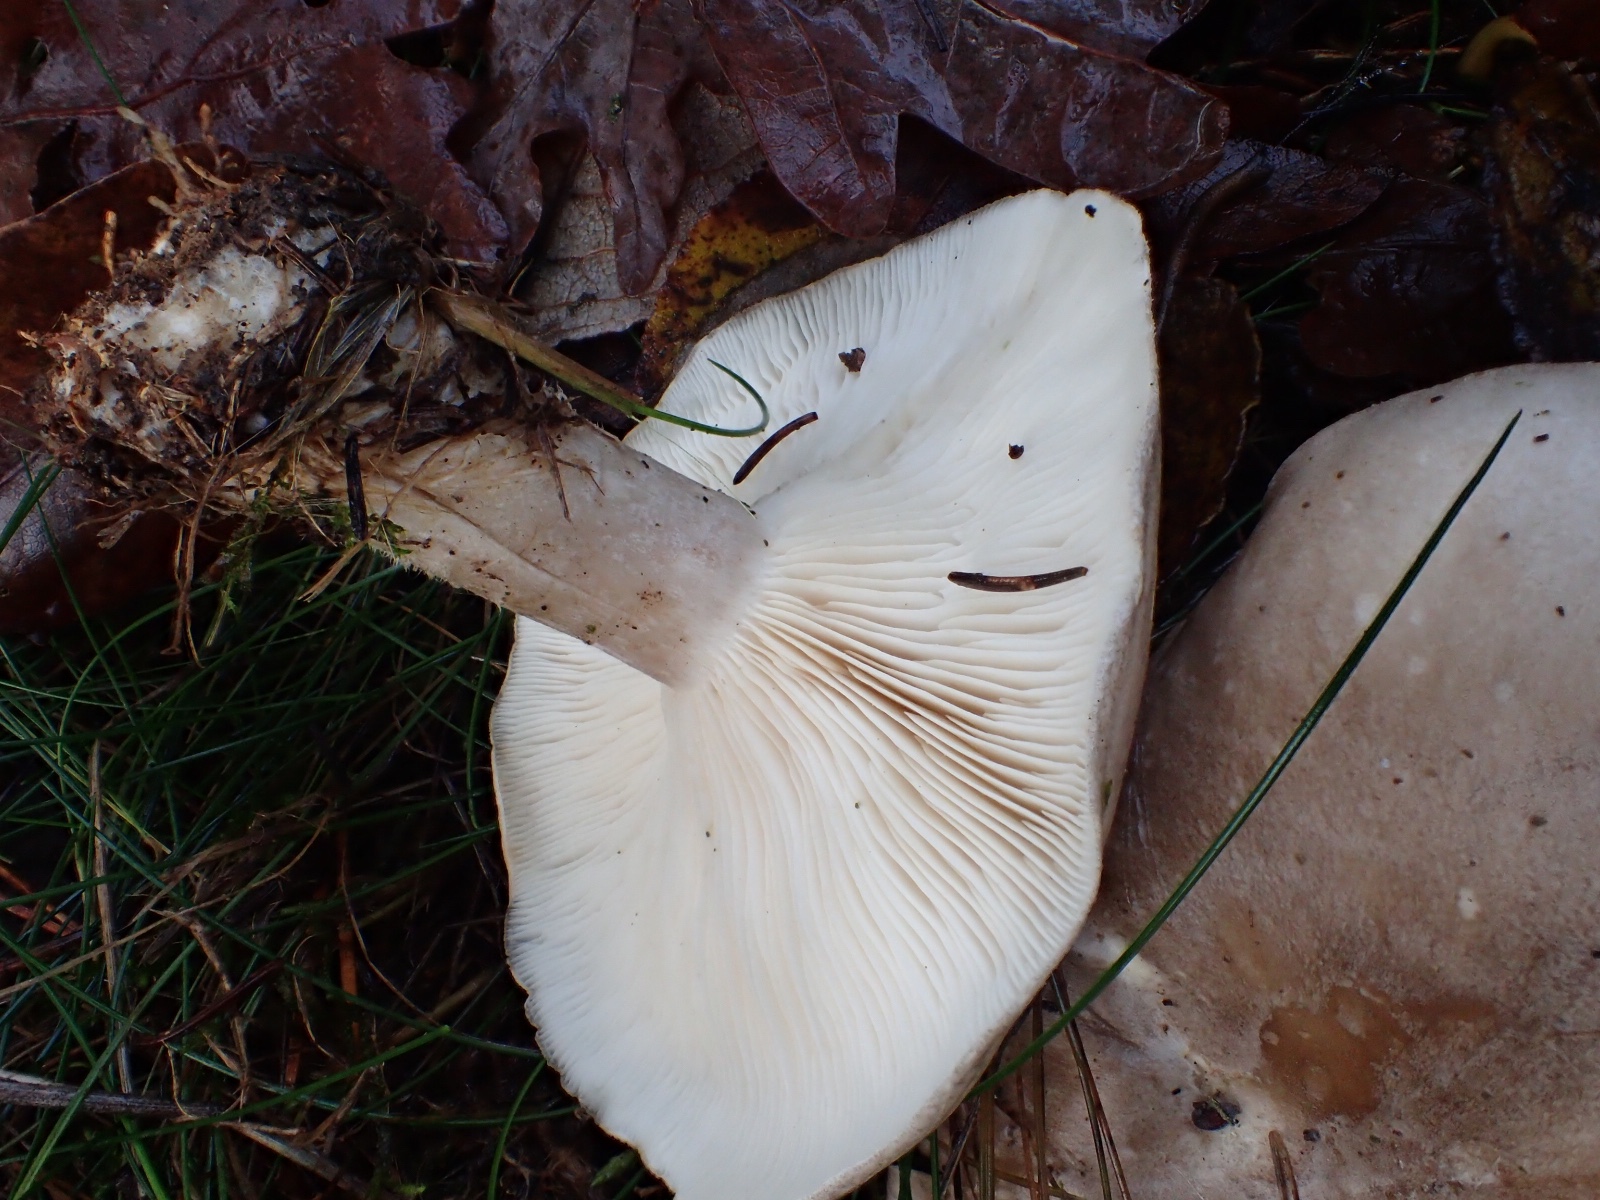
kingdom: Fungi
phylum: Basidiomycota
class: Agaricomycetes
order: Agaricales
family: Tricholomataceae
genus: Clitocybe
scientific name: Clitocybe nebularis
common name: tåge-tragthat
